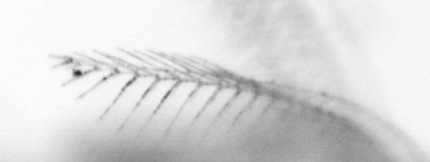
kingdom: Animalia
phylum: Chordata
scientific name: Chordata
